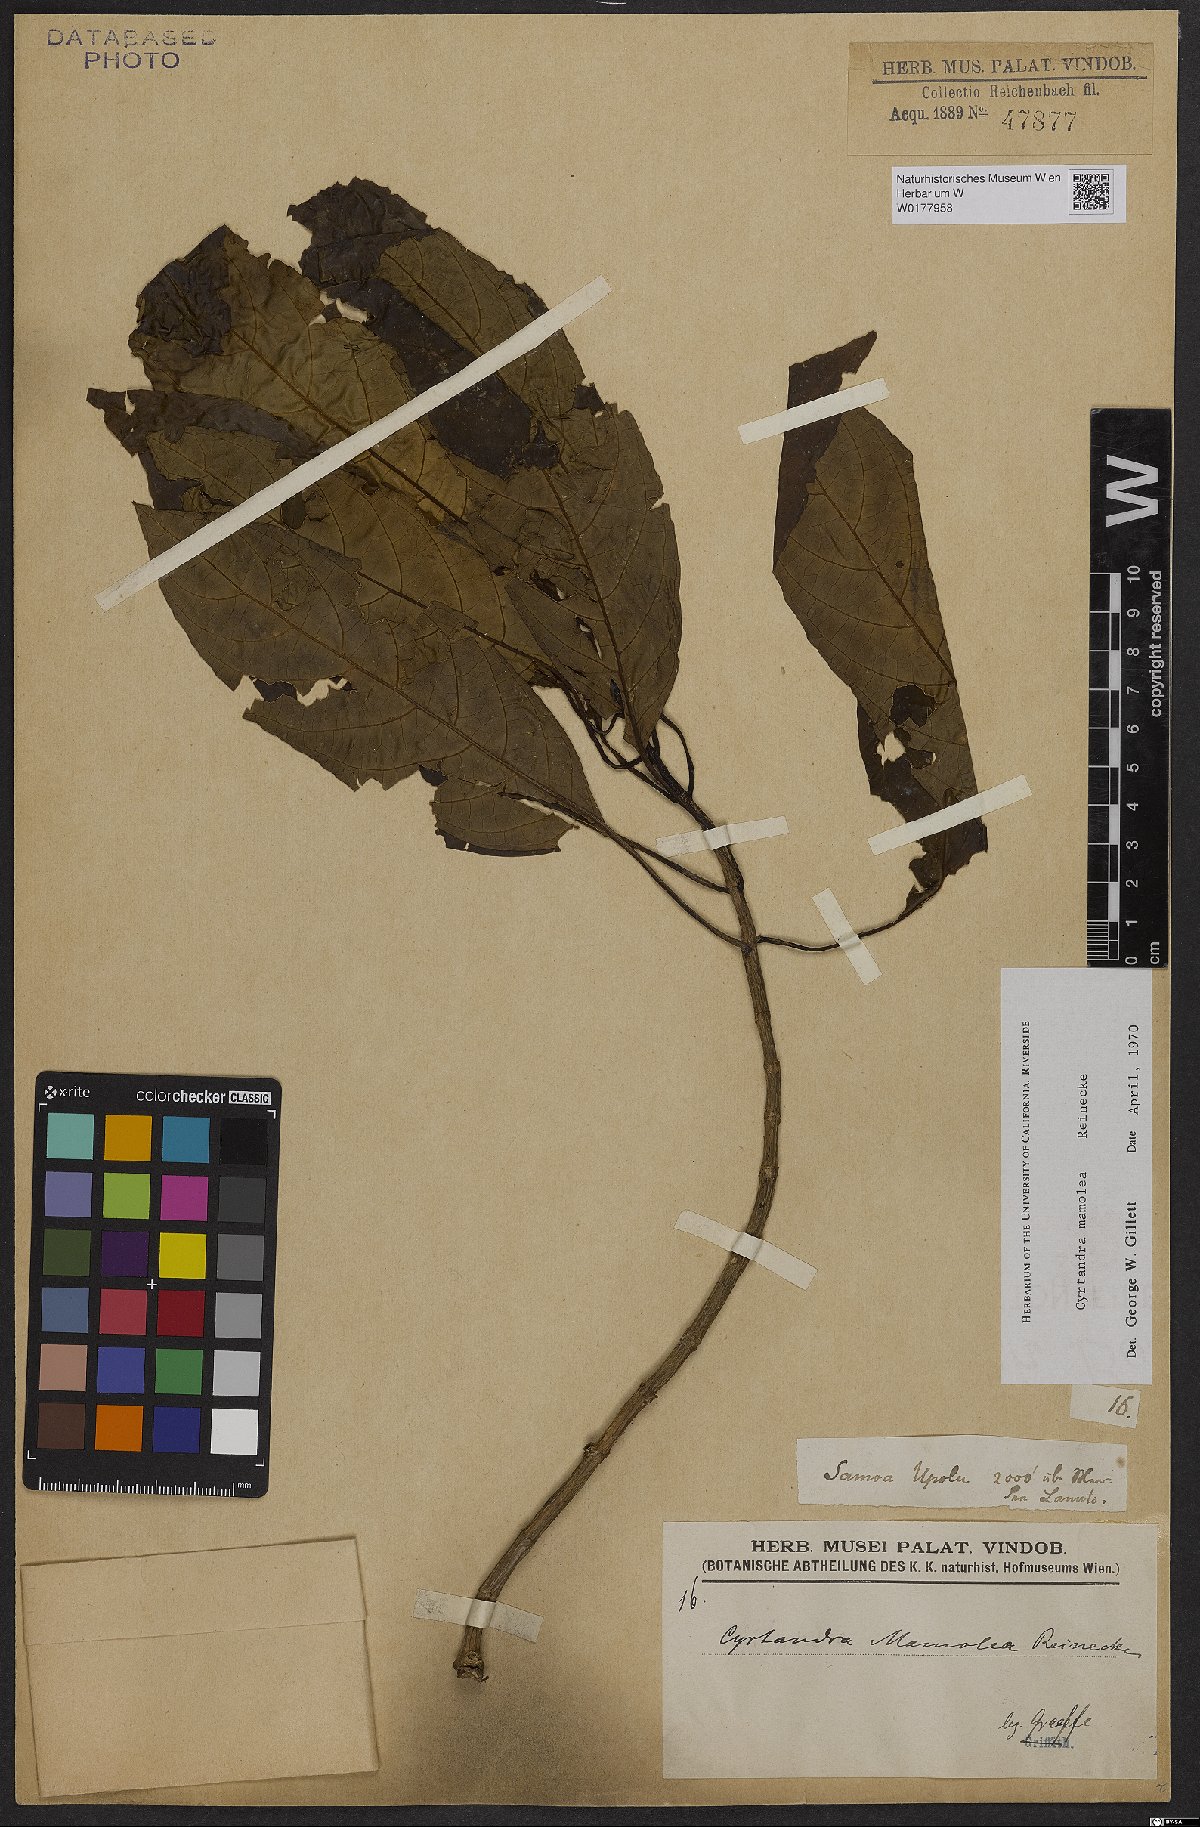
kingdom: Plantae
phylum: Tracheophyta
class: Magnoliopsida
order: Lamiales
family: Gesneriaceae
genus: Cyrtandra
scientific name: Cyrtandra mamolea
